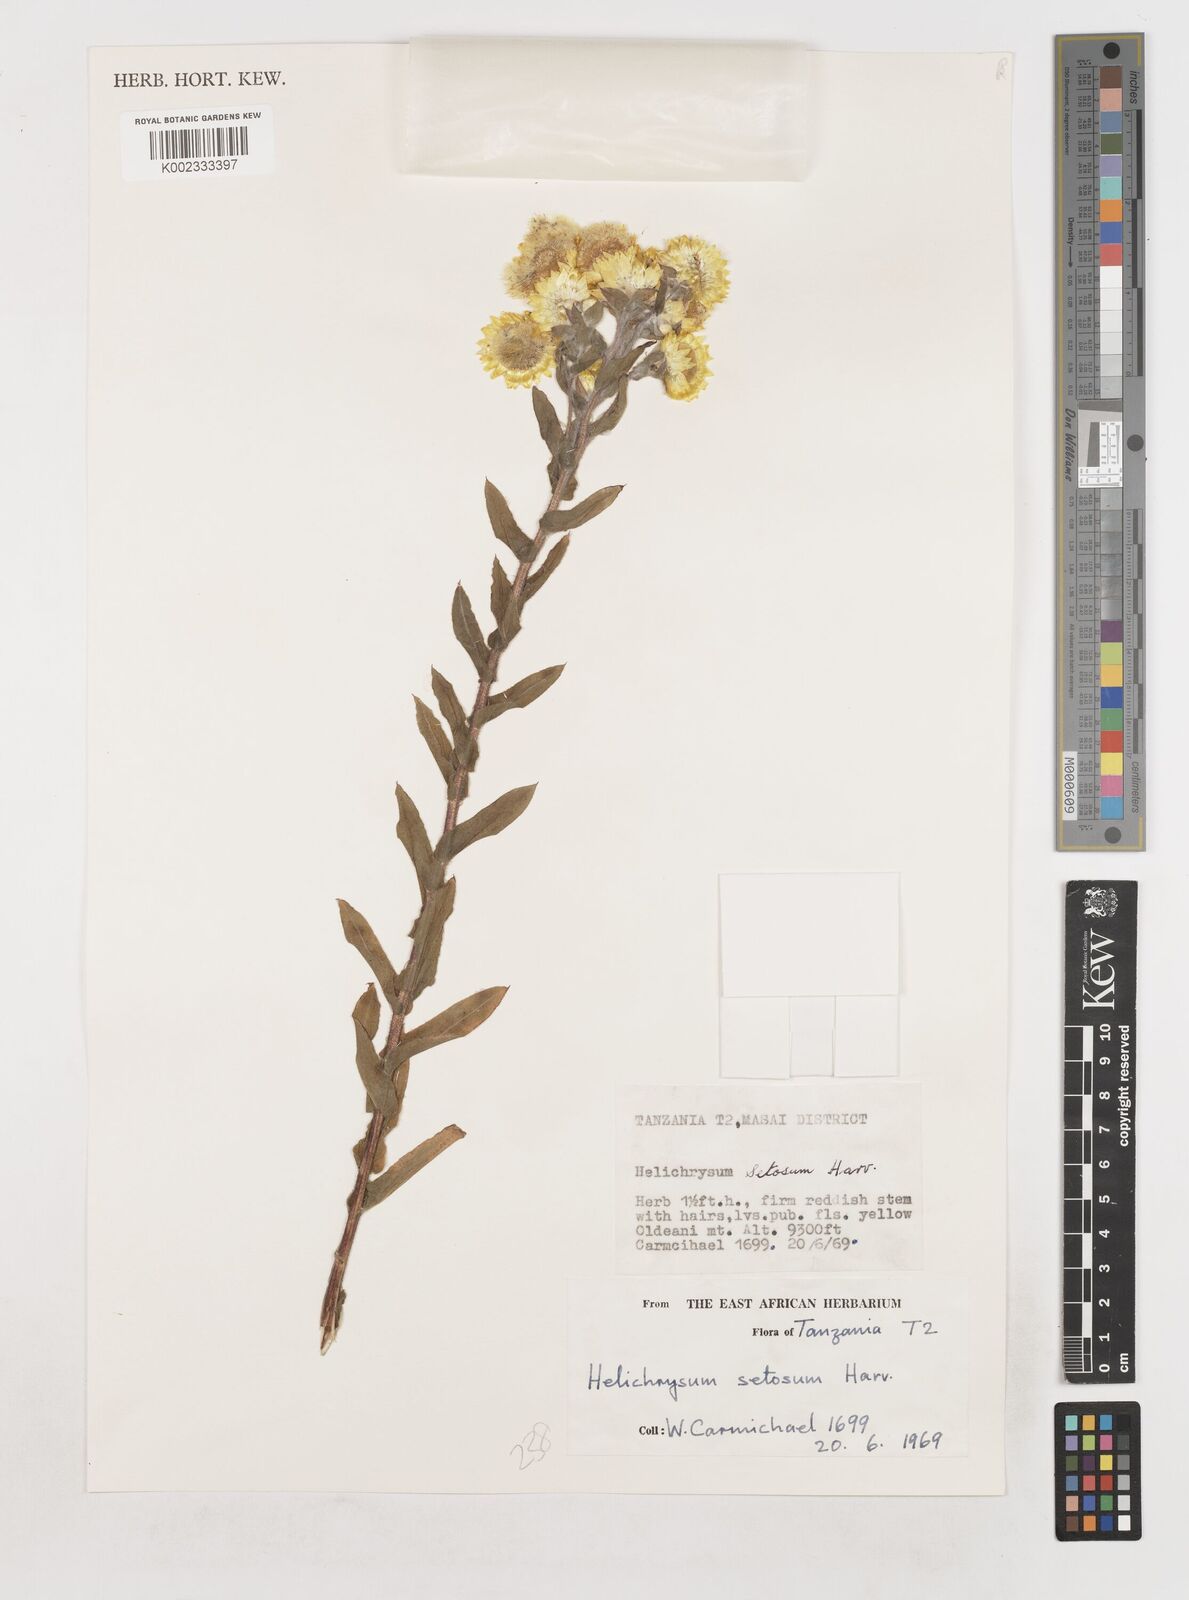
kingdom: Plantae
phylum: Tracheophyta
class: Magnoliopsida
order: Asterales
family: Asteraceae
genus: Helichrysum
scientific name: Helichrysum setosum
